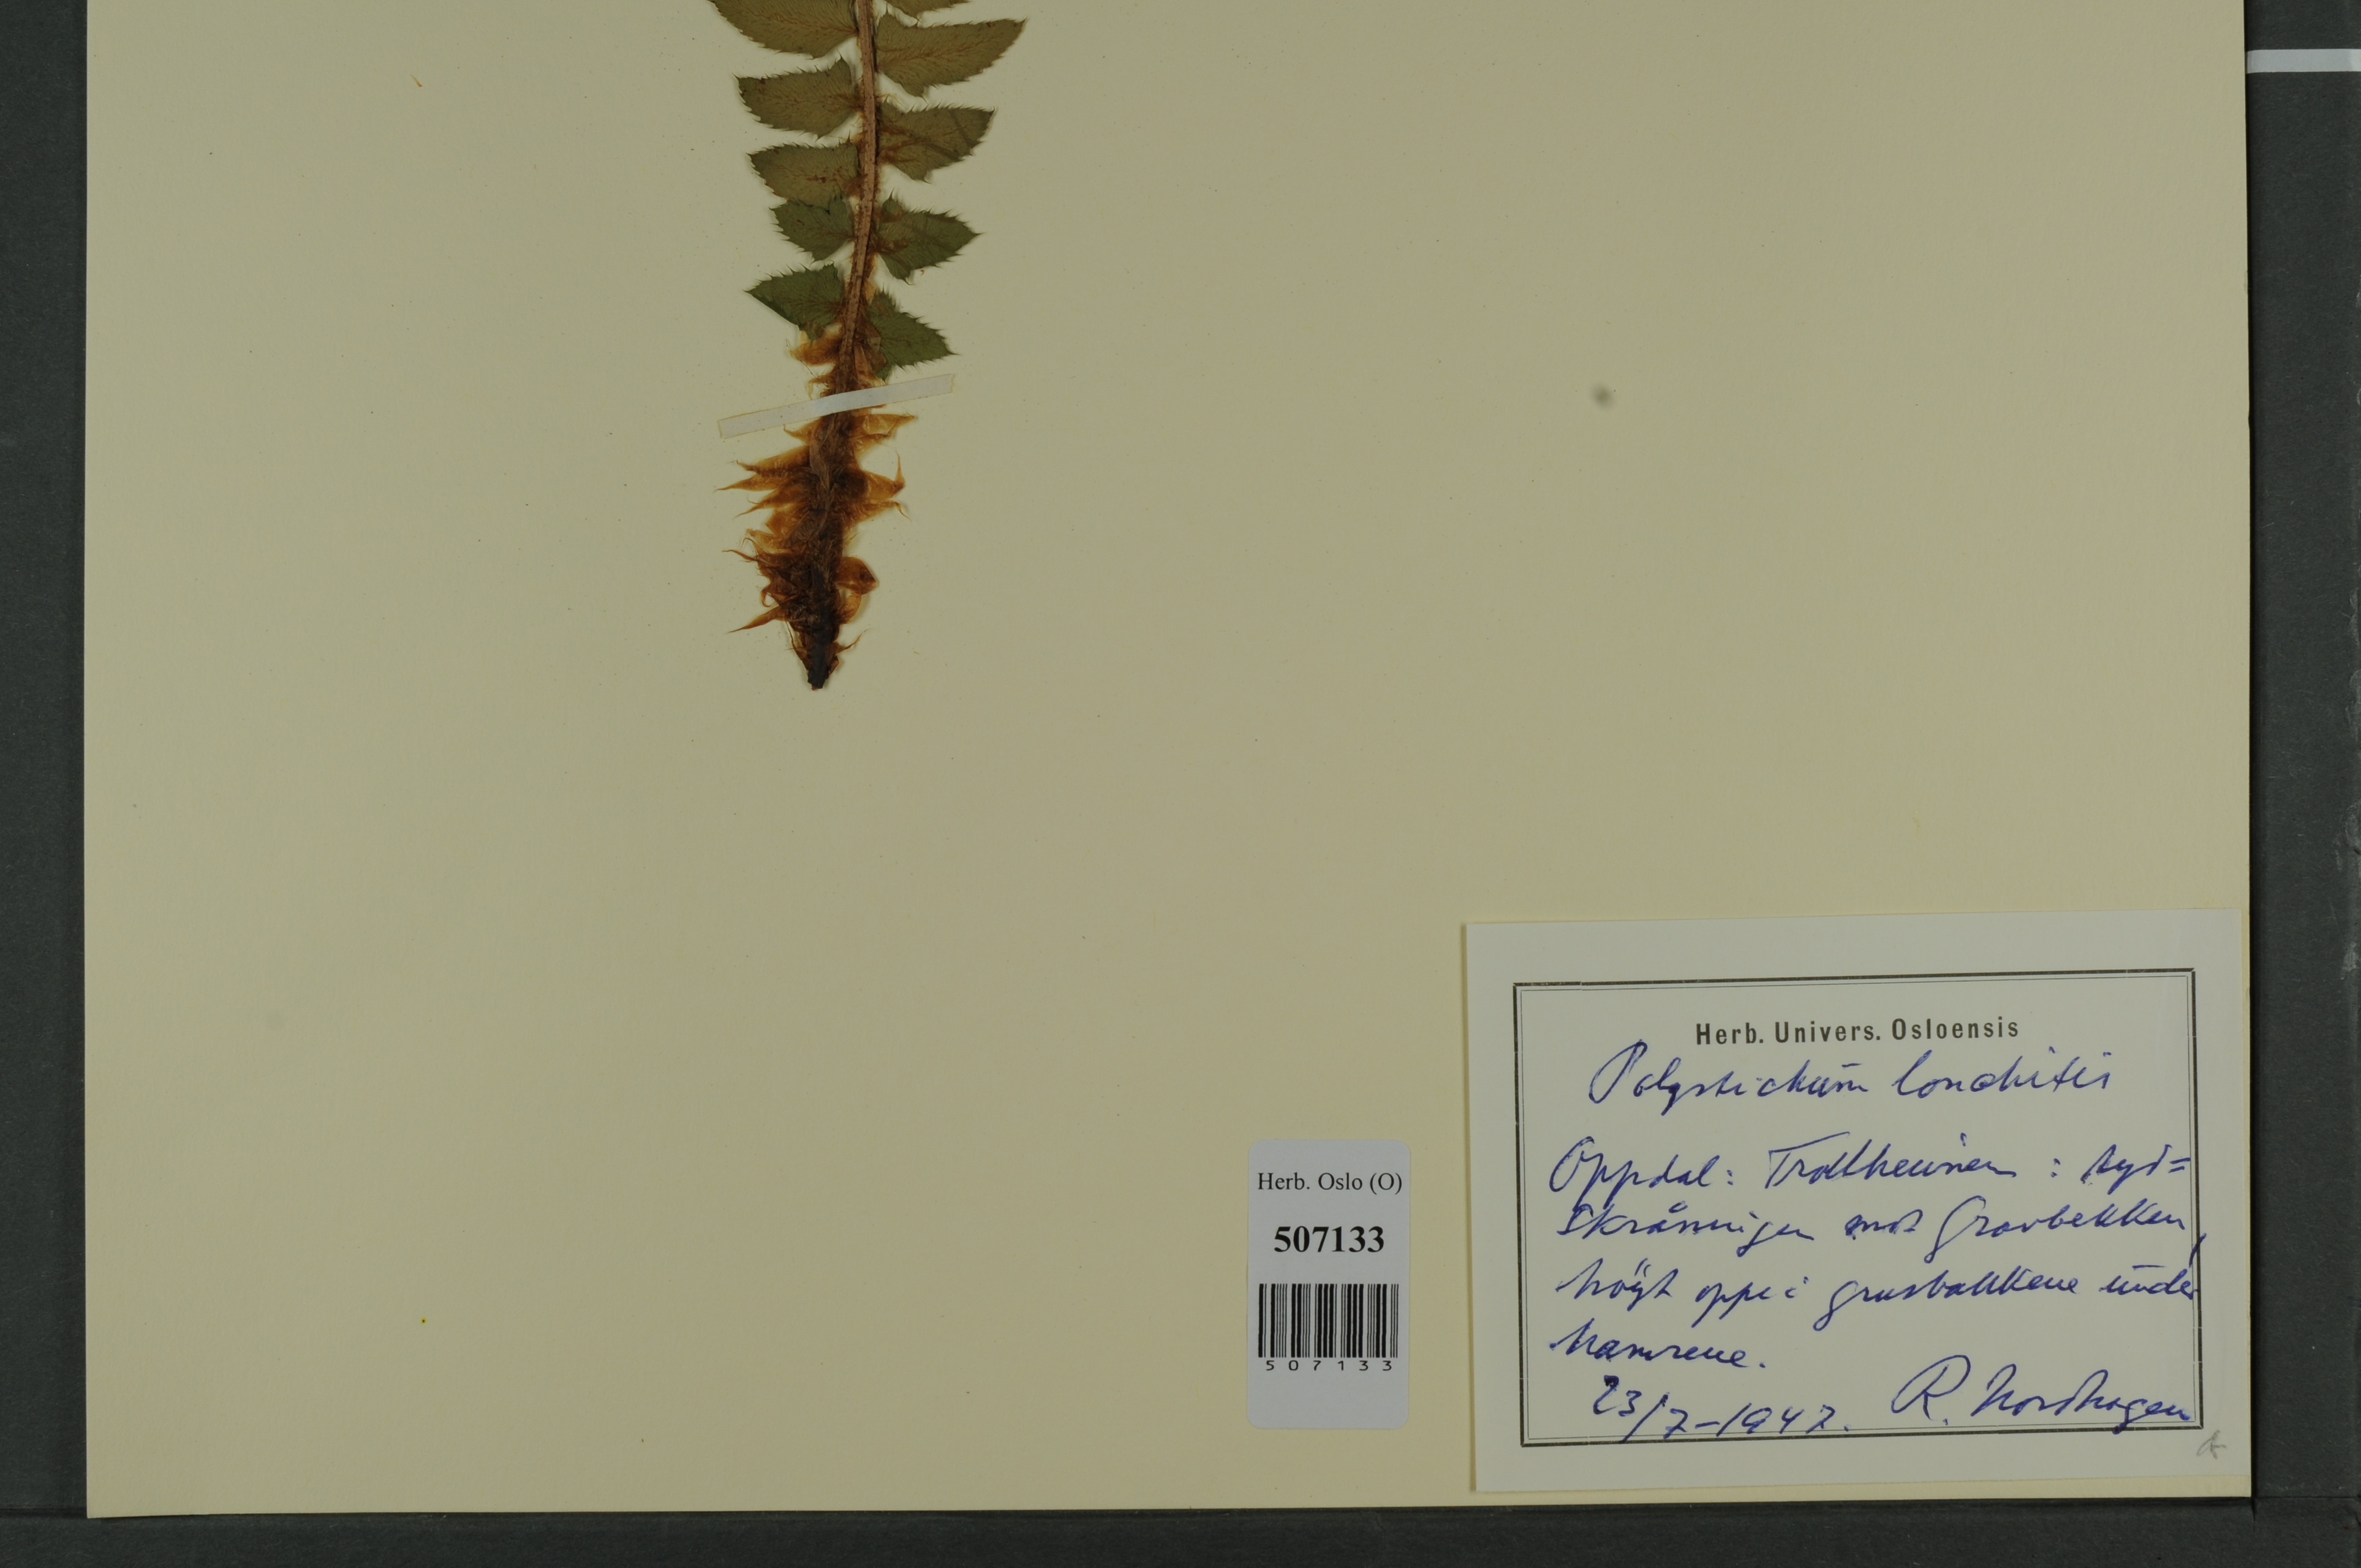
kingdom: Plantae
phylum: Tracheophyta
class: Polypodiopsida
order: Polypodiales
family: Dryopteridaceae
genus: Polystichum
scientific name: Polystichum lonchitis
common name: Holly fern
